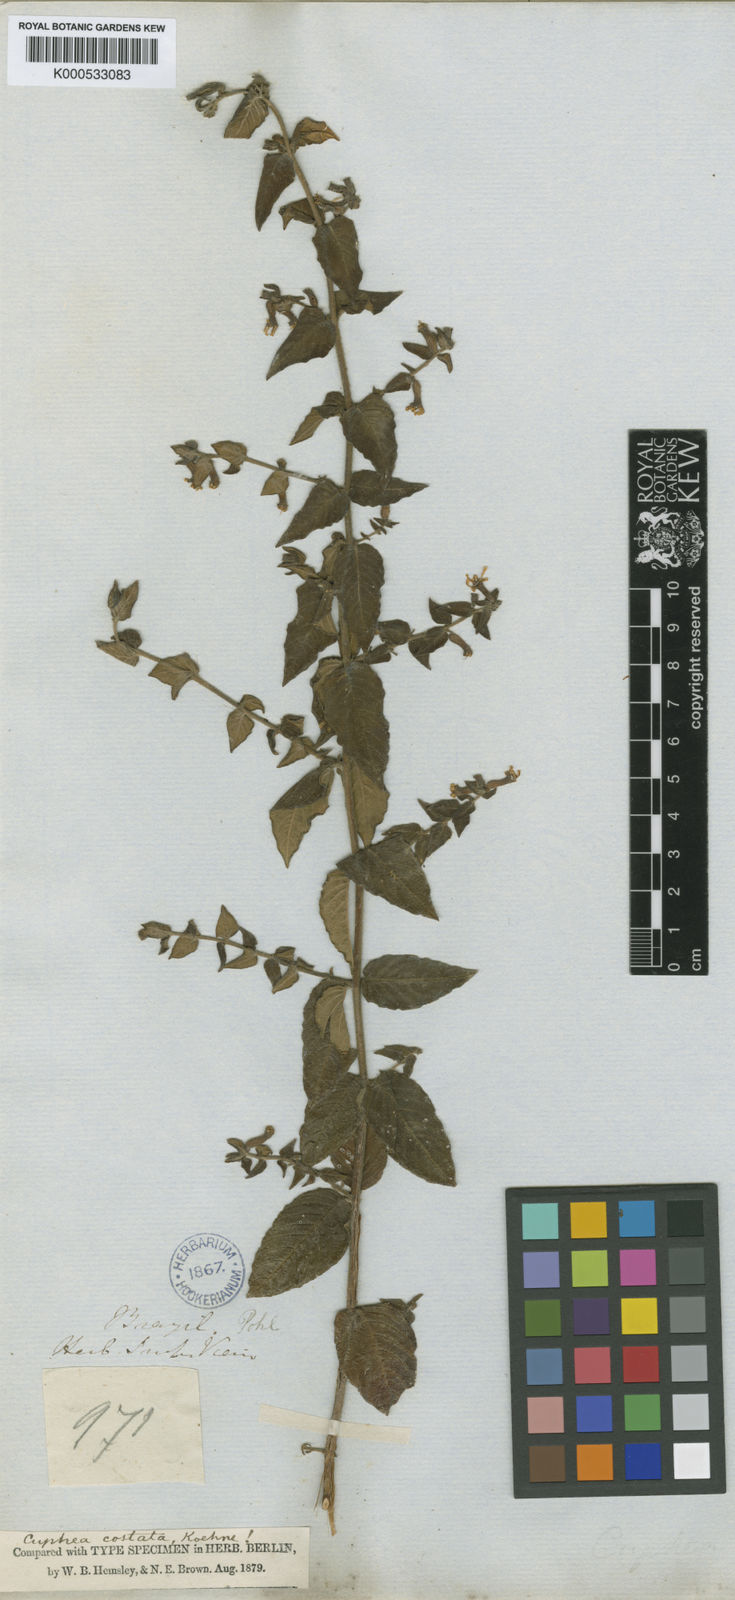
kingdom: Plantae
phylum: Tracheophyta
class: Magnoliopsida
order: Myrtales
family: Lythraceae
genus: Cuphea
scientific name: Cuphea sessiliflora
